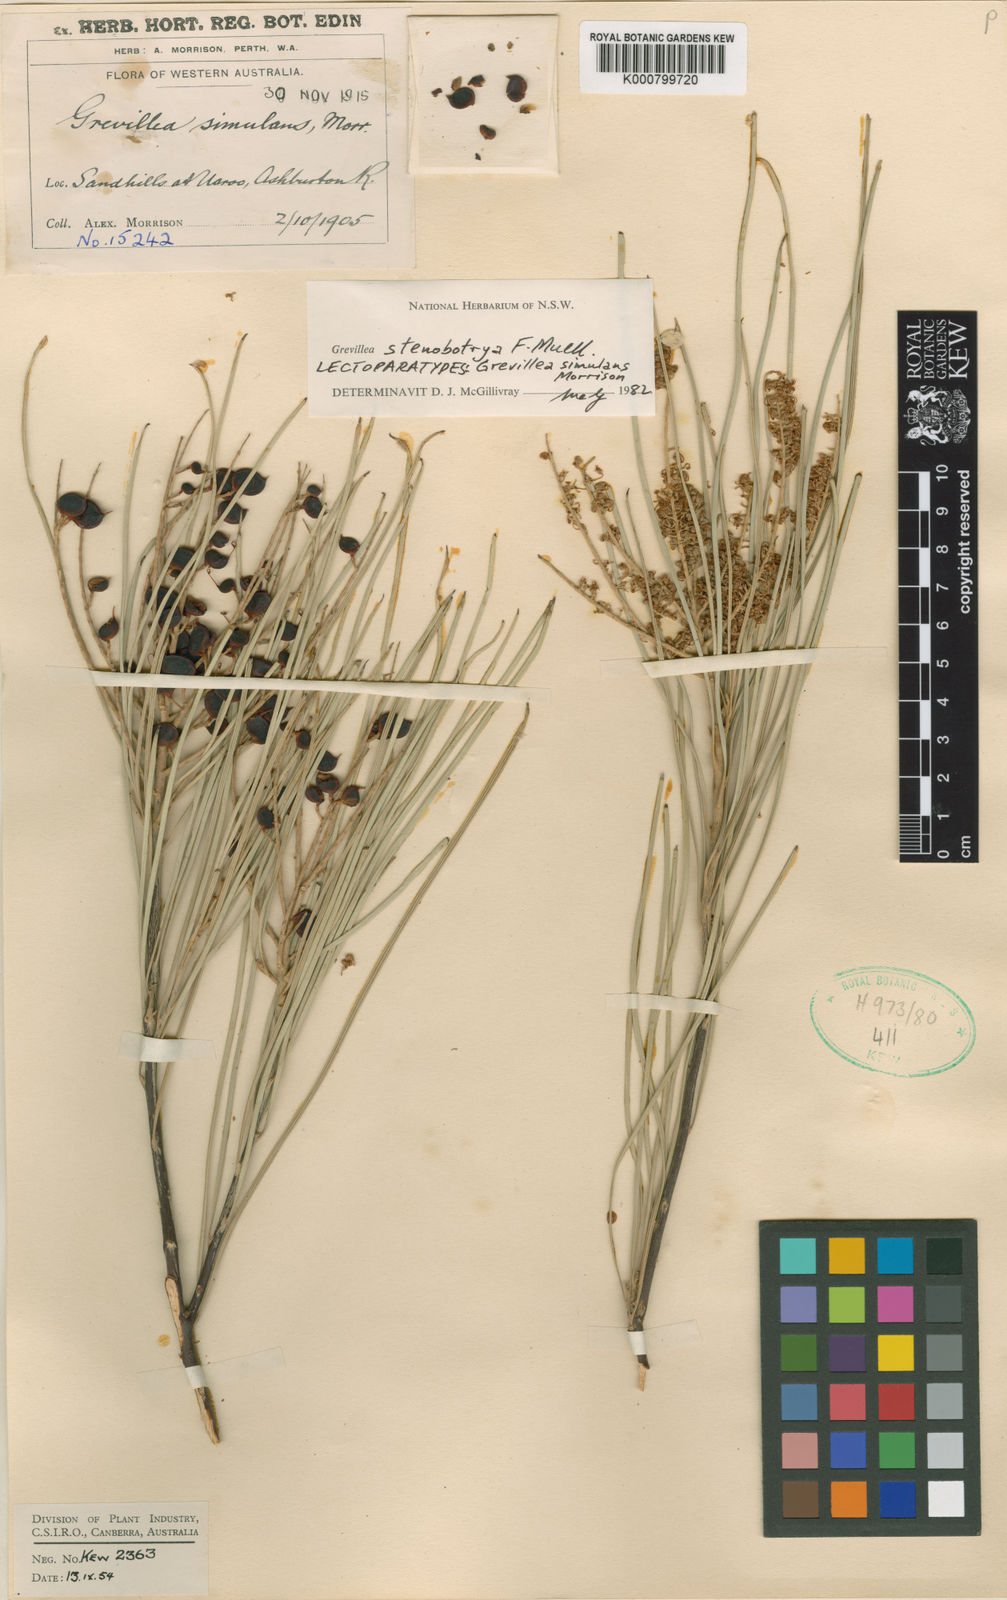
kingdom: Plantae
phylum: Tracheophyta
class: Magnoliopsida
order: Proteales
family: Proteaceae
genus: Grevillea
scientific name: Grevillea stenobotrya
